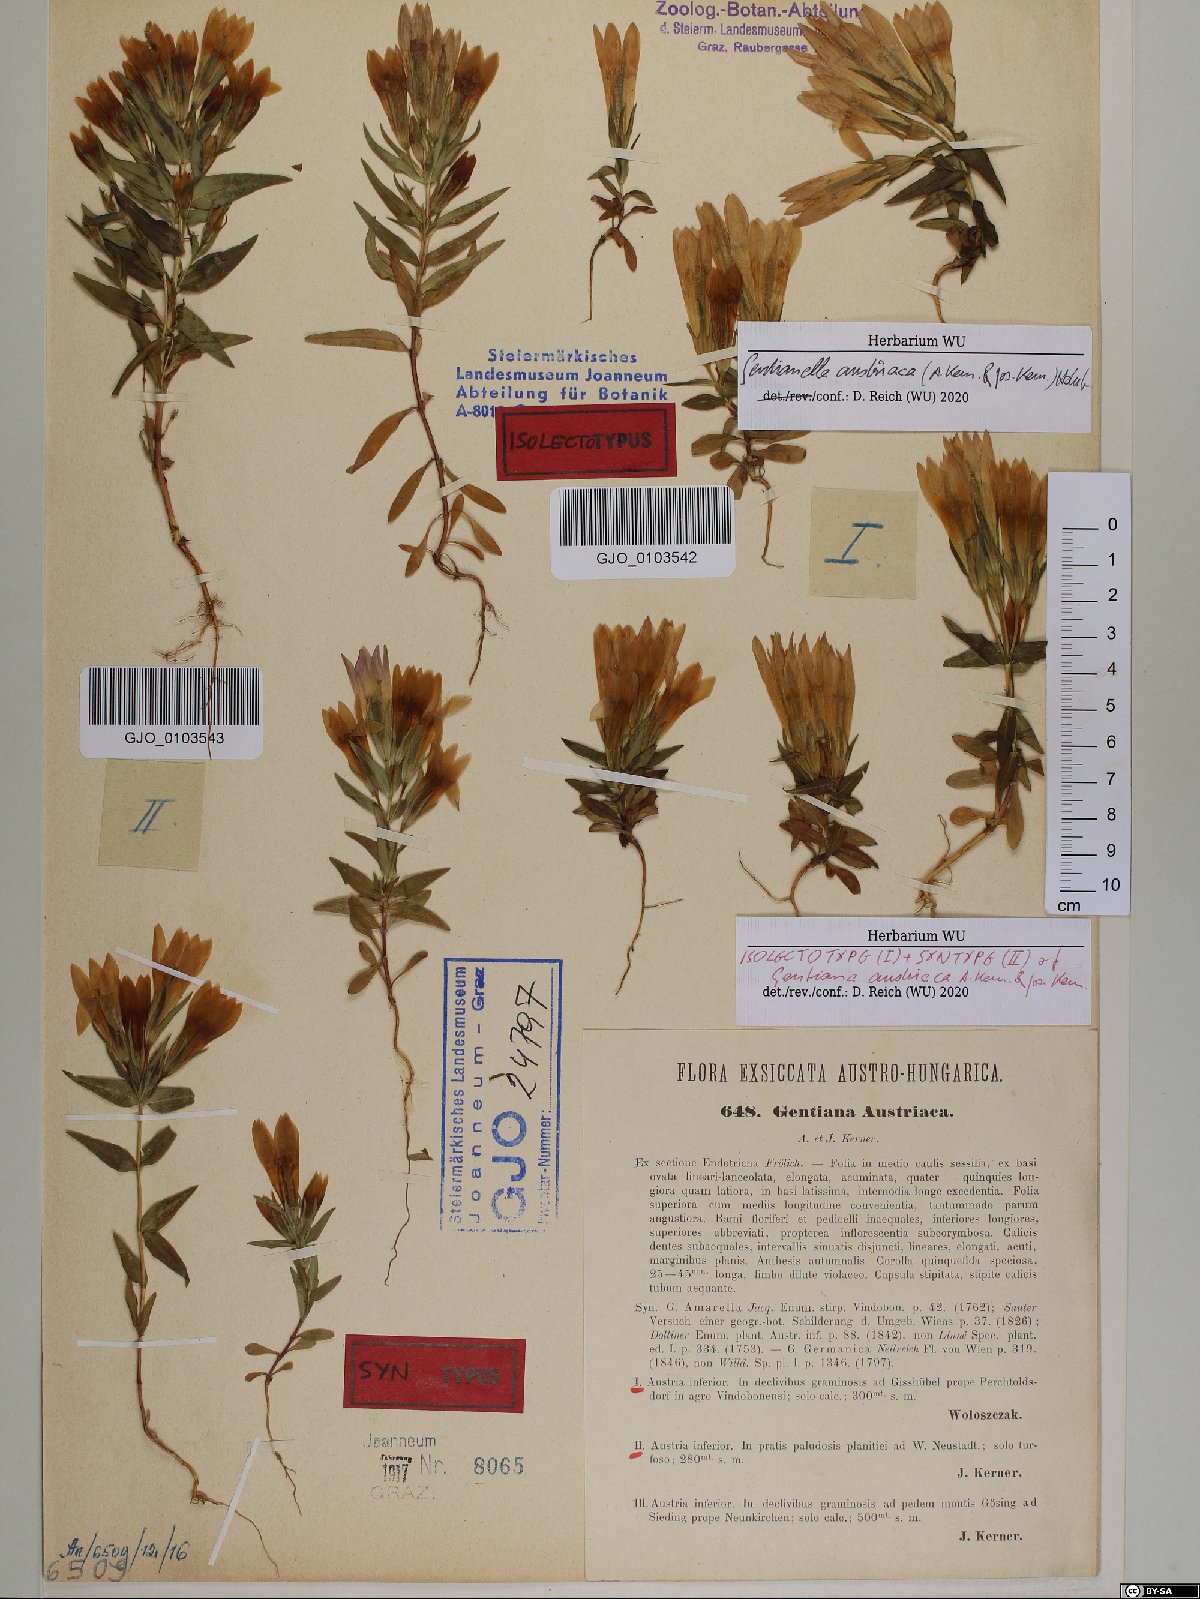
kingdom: Plantae
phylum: Tracheophyta
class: Magnoliopsida
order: Gentianales
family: Gentianaceae
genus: Gentianella
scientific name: Gentianella austriaca
